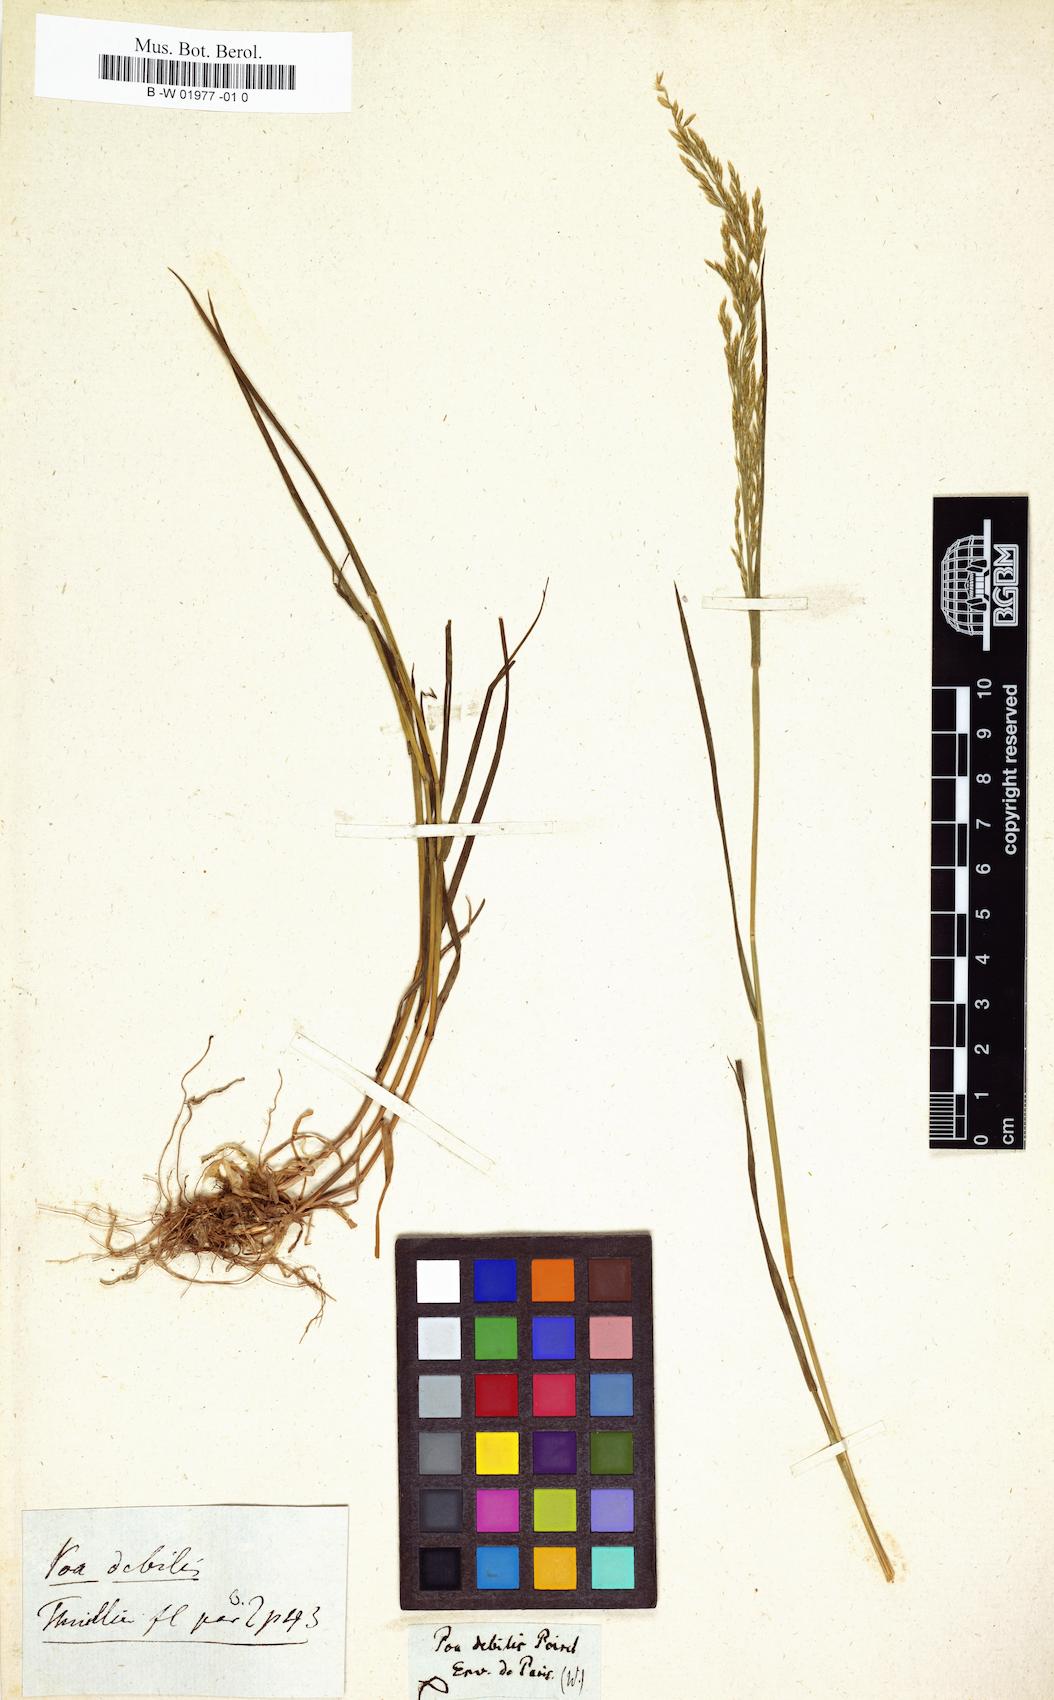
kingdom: Plantae
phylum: Tracheophyta
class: Liliopsida
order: Poales
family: Poaceae
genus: Poa
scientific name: Poa
